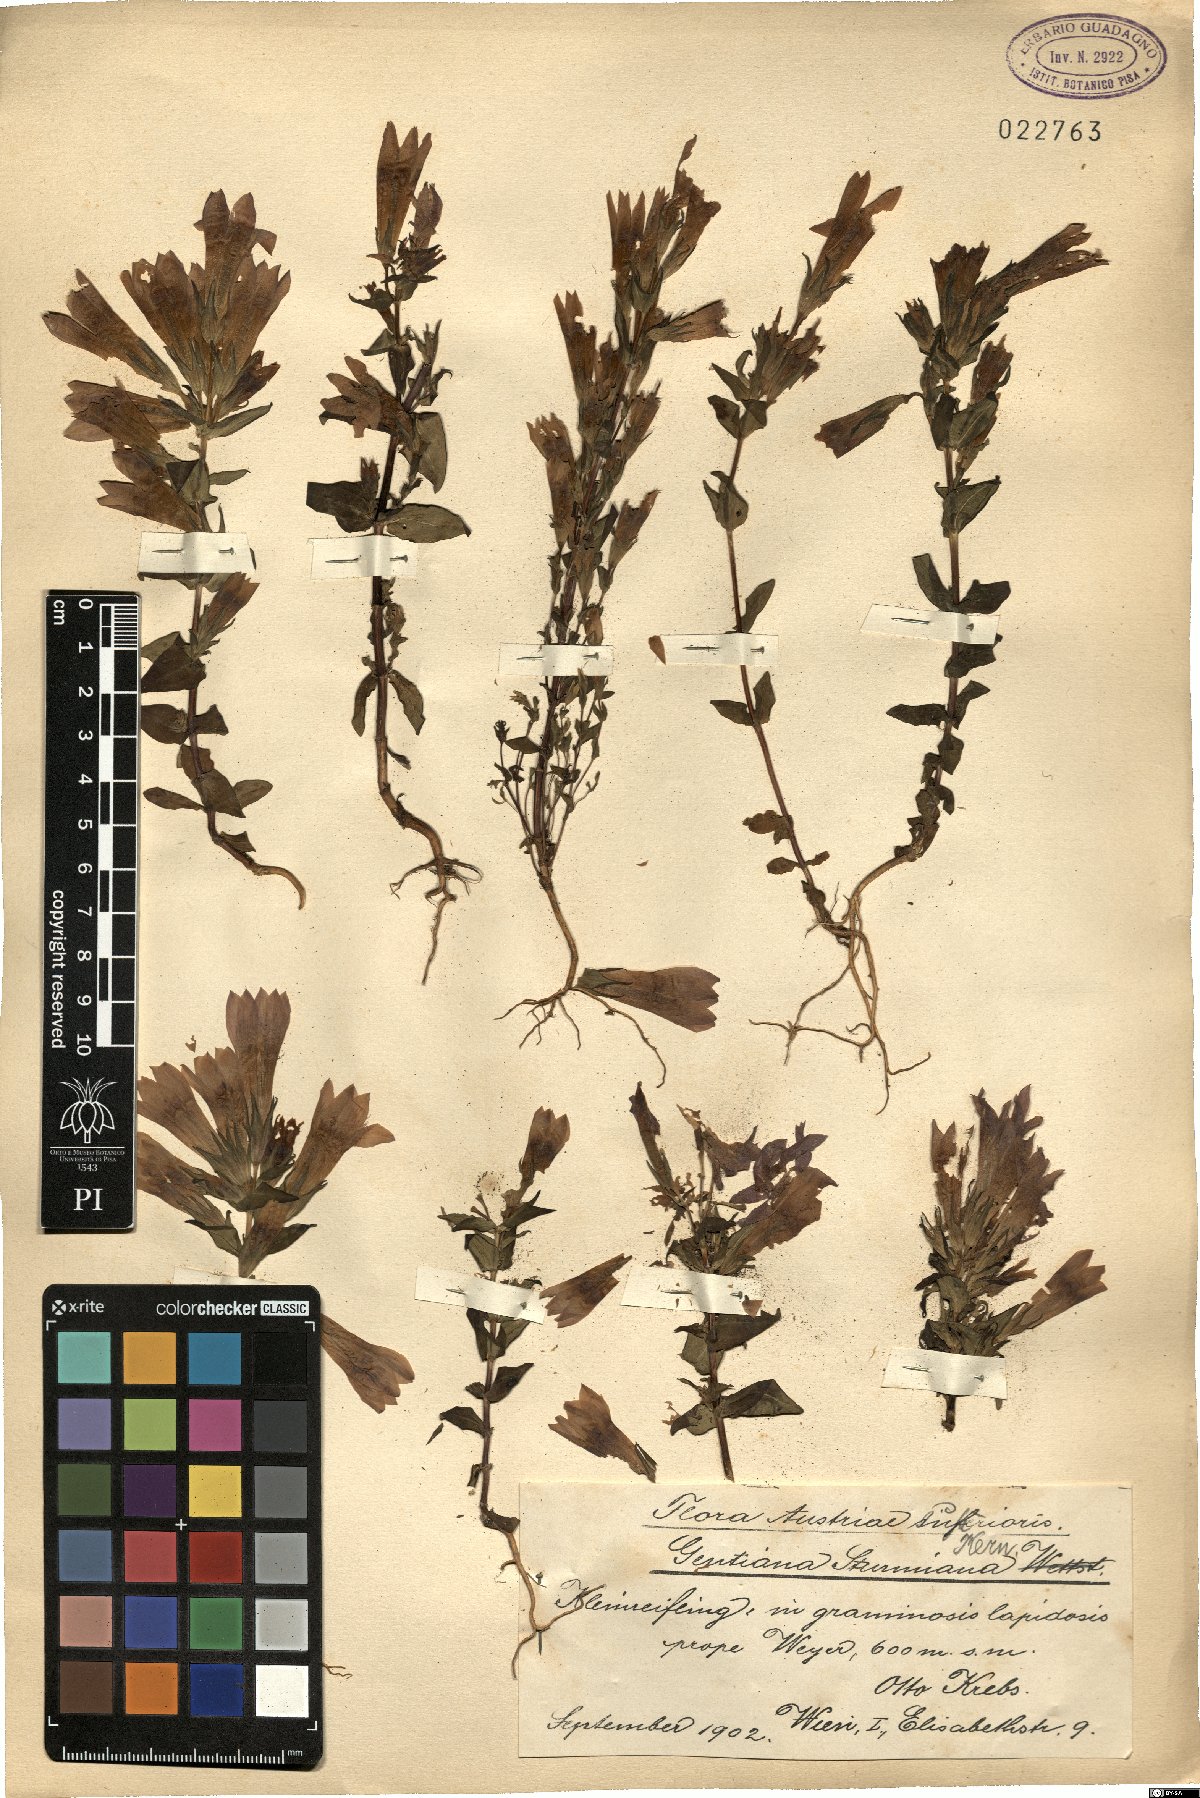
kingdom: Plantae
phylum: Tracheophyta
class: Magnoliopsida
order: Gentianales
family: Gentianaceae
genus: Gentianella
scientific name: Gentianella obtusifolia
